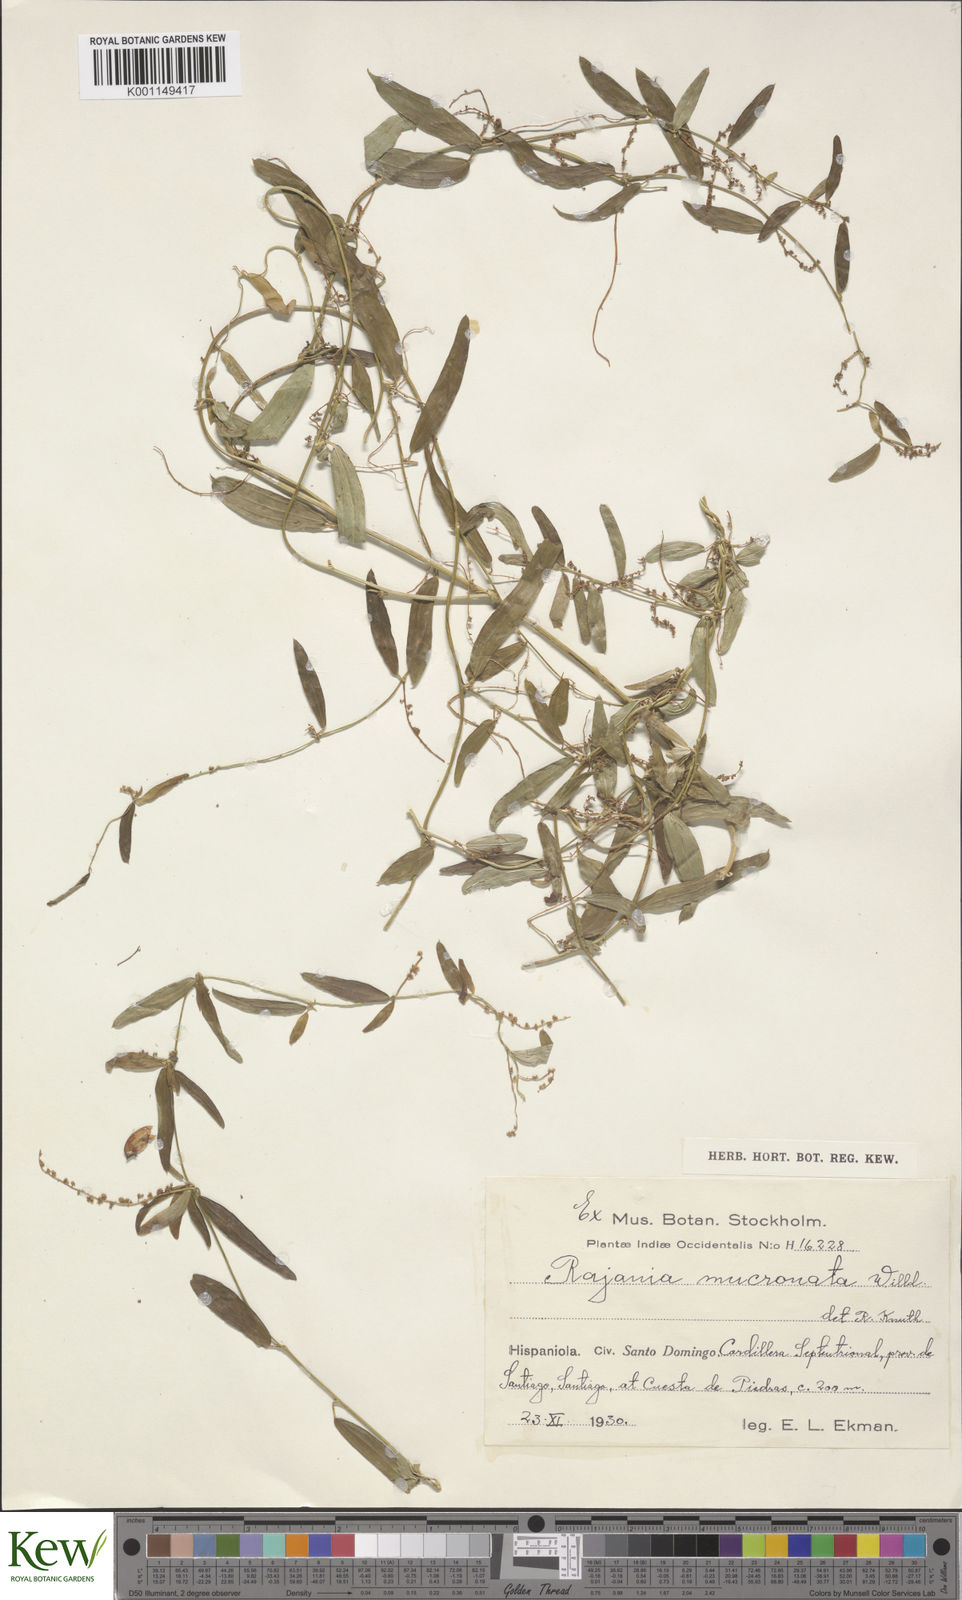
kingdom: Plantae
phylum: Tracheophyta
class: Liliopsida
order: Dioscoreales
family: Dioscoreaceae
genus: Dioscorea
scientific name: Dioscorea
